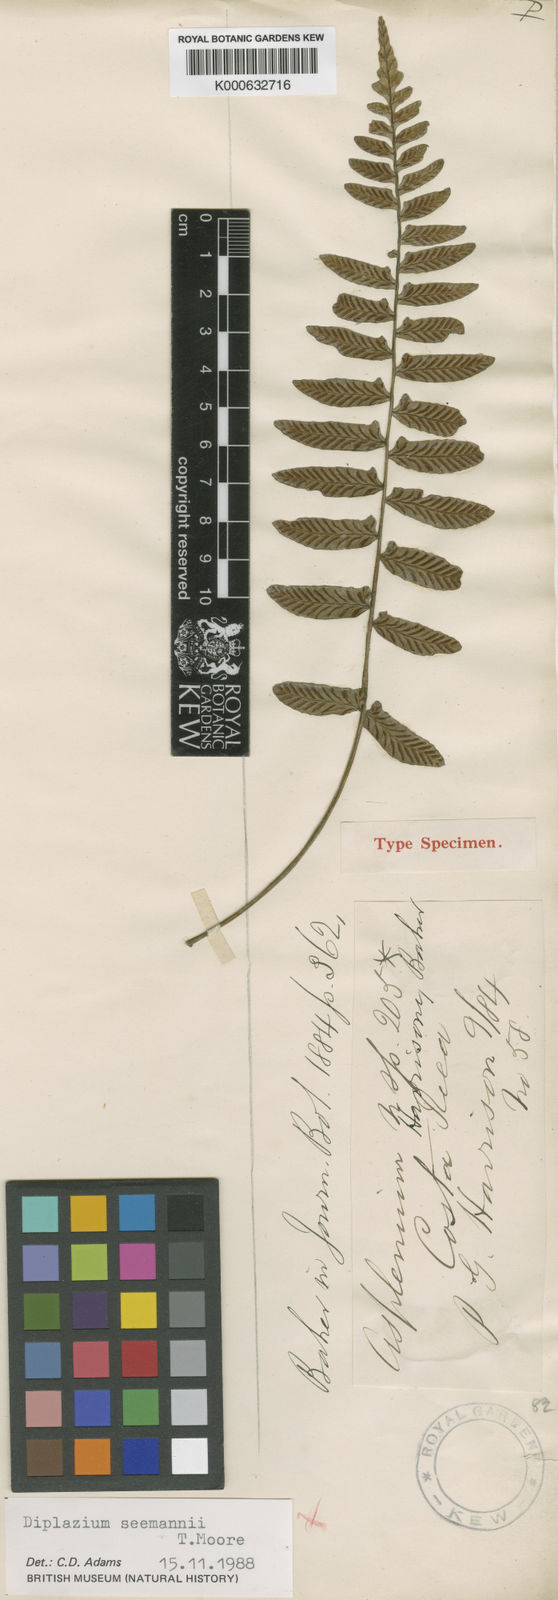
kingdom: Plantae
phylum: Tracheophyta
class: Polypodiopsida
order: Polypodiales
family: Athyriaceae
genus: Diplazium
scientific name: Diplazium
